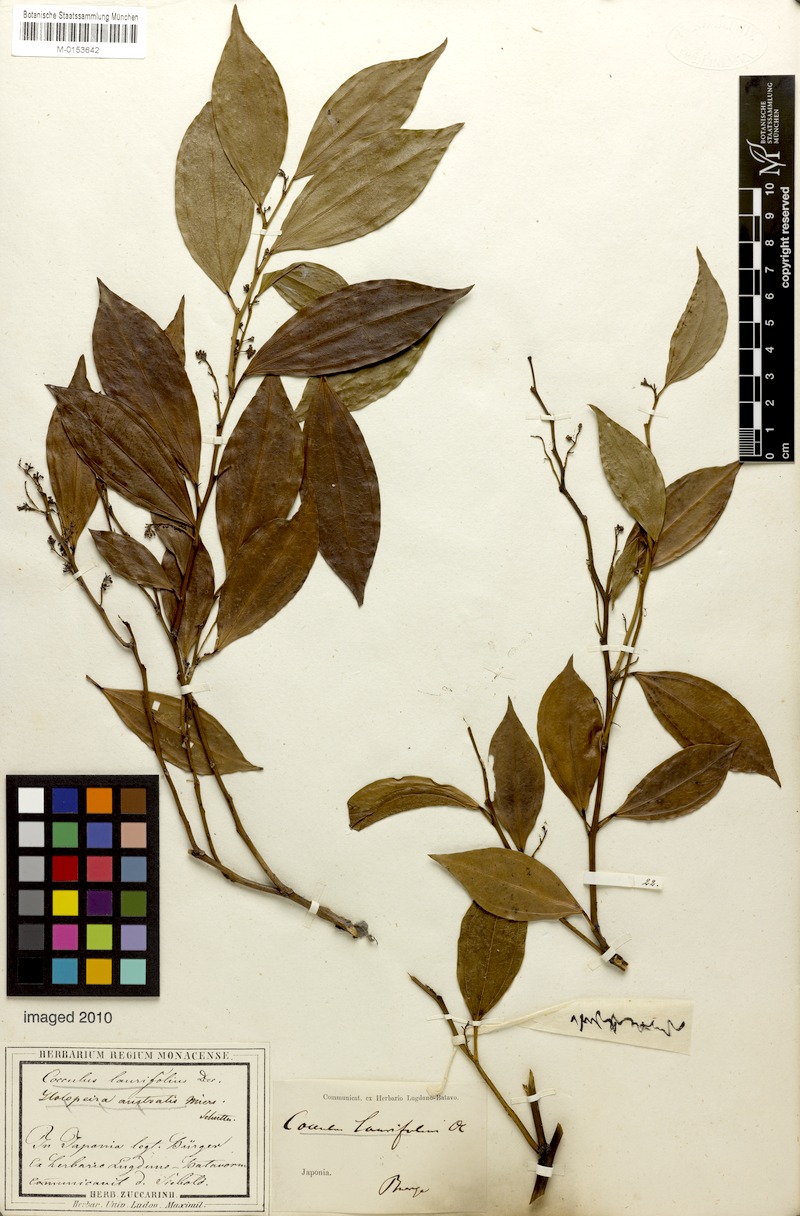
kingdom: Plantae
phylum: Tracheophyta
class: Magnoliopsida
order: Ranunculales
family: Menispermaceae
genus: Cocculus
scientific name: Cocculus laurifolius
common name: Laurel-leaf snailseed
